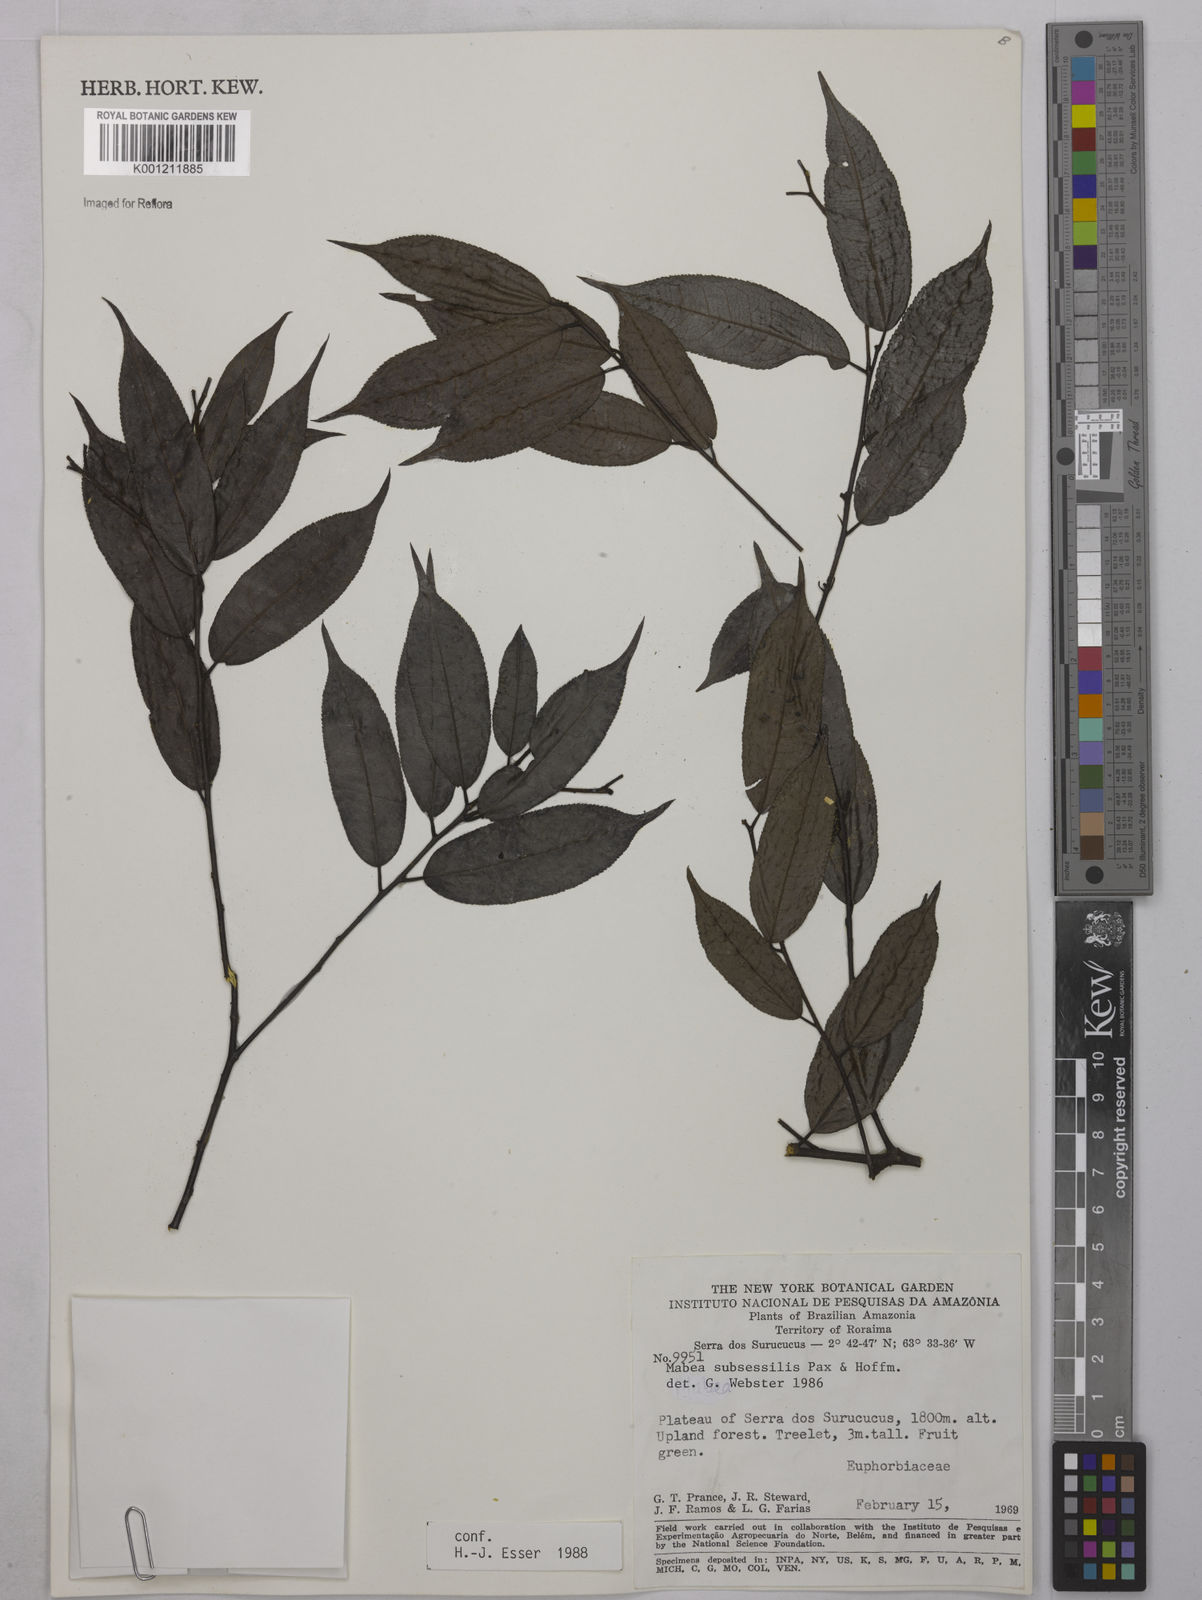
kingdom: Plantae
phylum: Tracheophyta
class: Magnoliopsida
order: Malpighiales
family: Euphorbiaceae
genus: Mabea
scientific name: Mabea subsessilis
